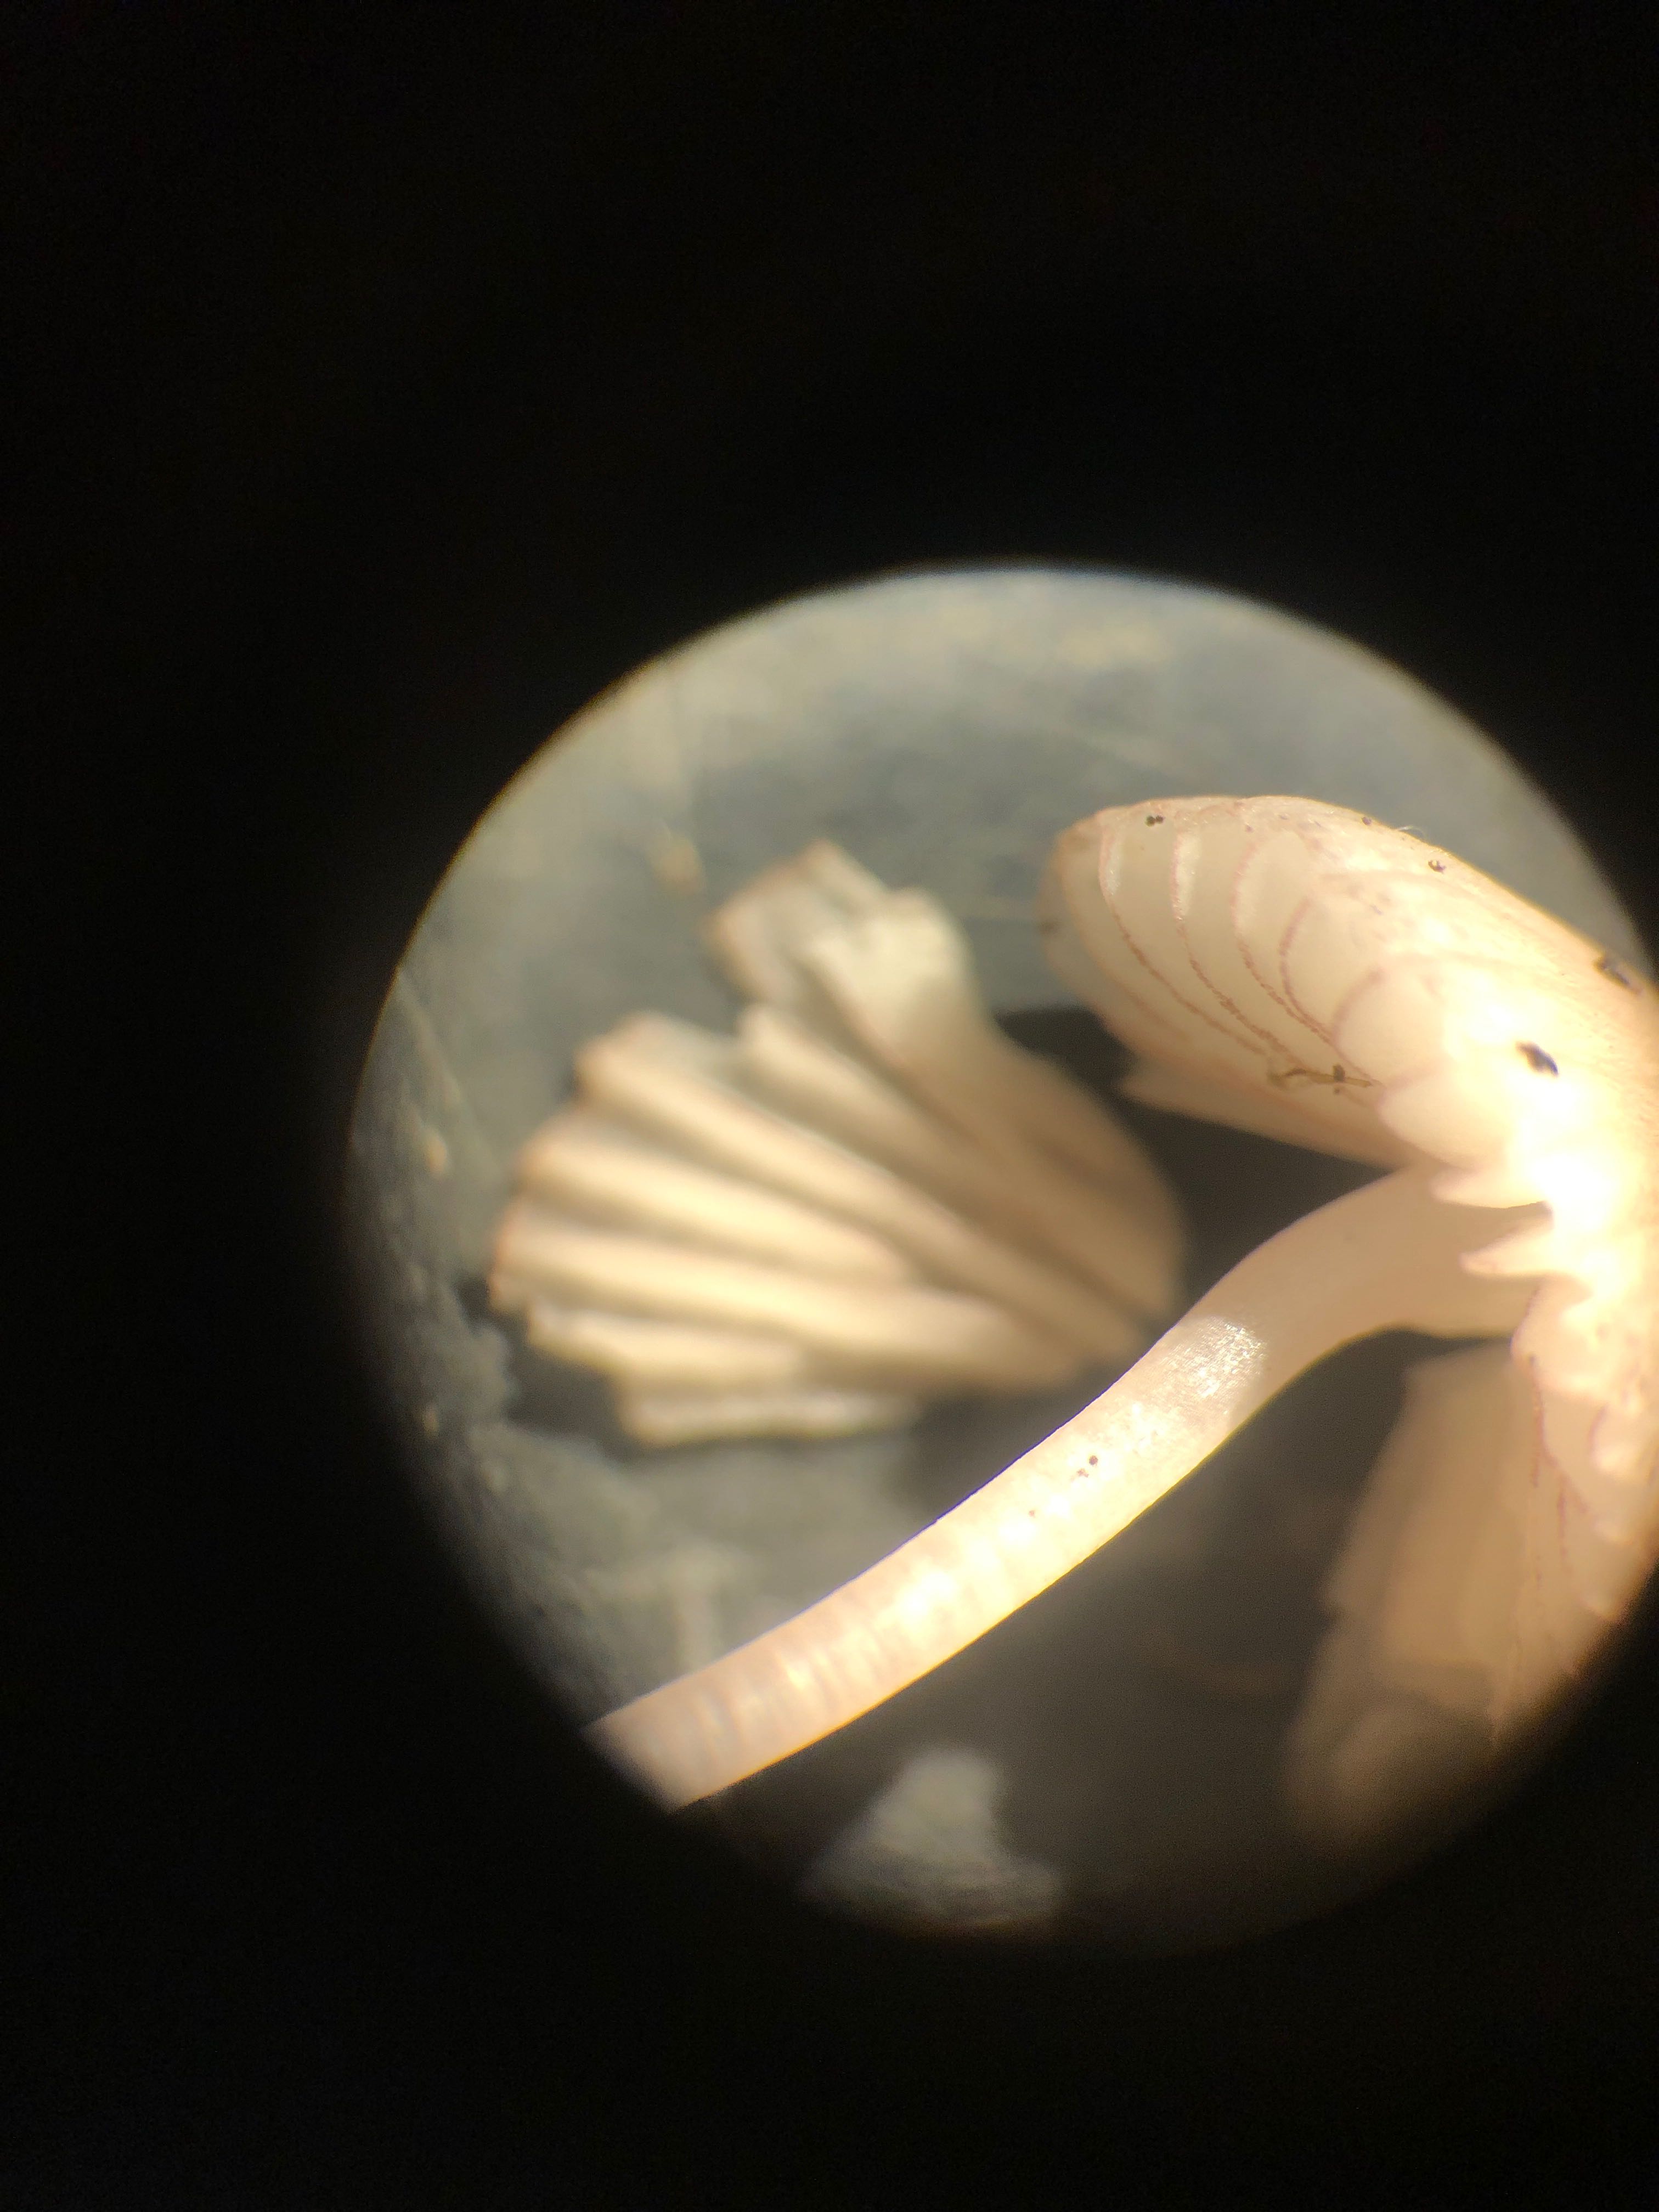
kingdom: Fungi
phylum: Basidiomycota
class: Agaricomycetes
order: Agaricales
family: Mycenaceae
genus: Mycena
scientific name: Mycena rubromarginata
